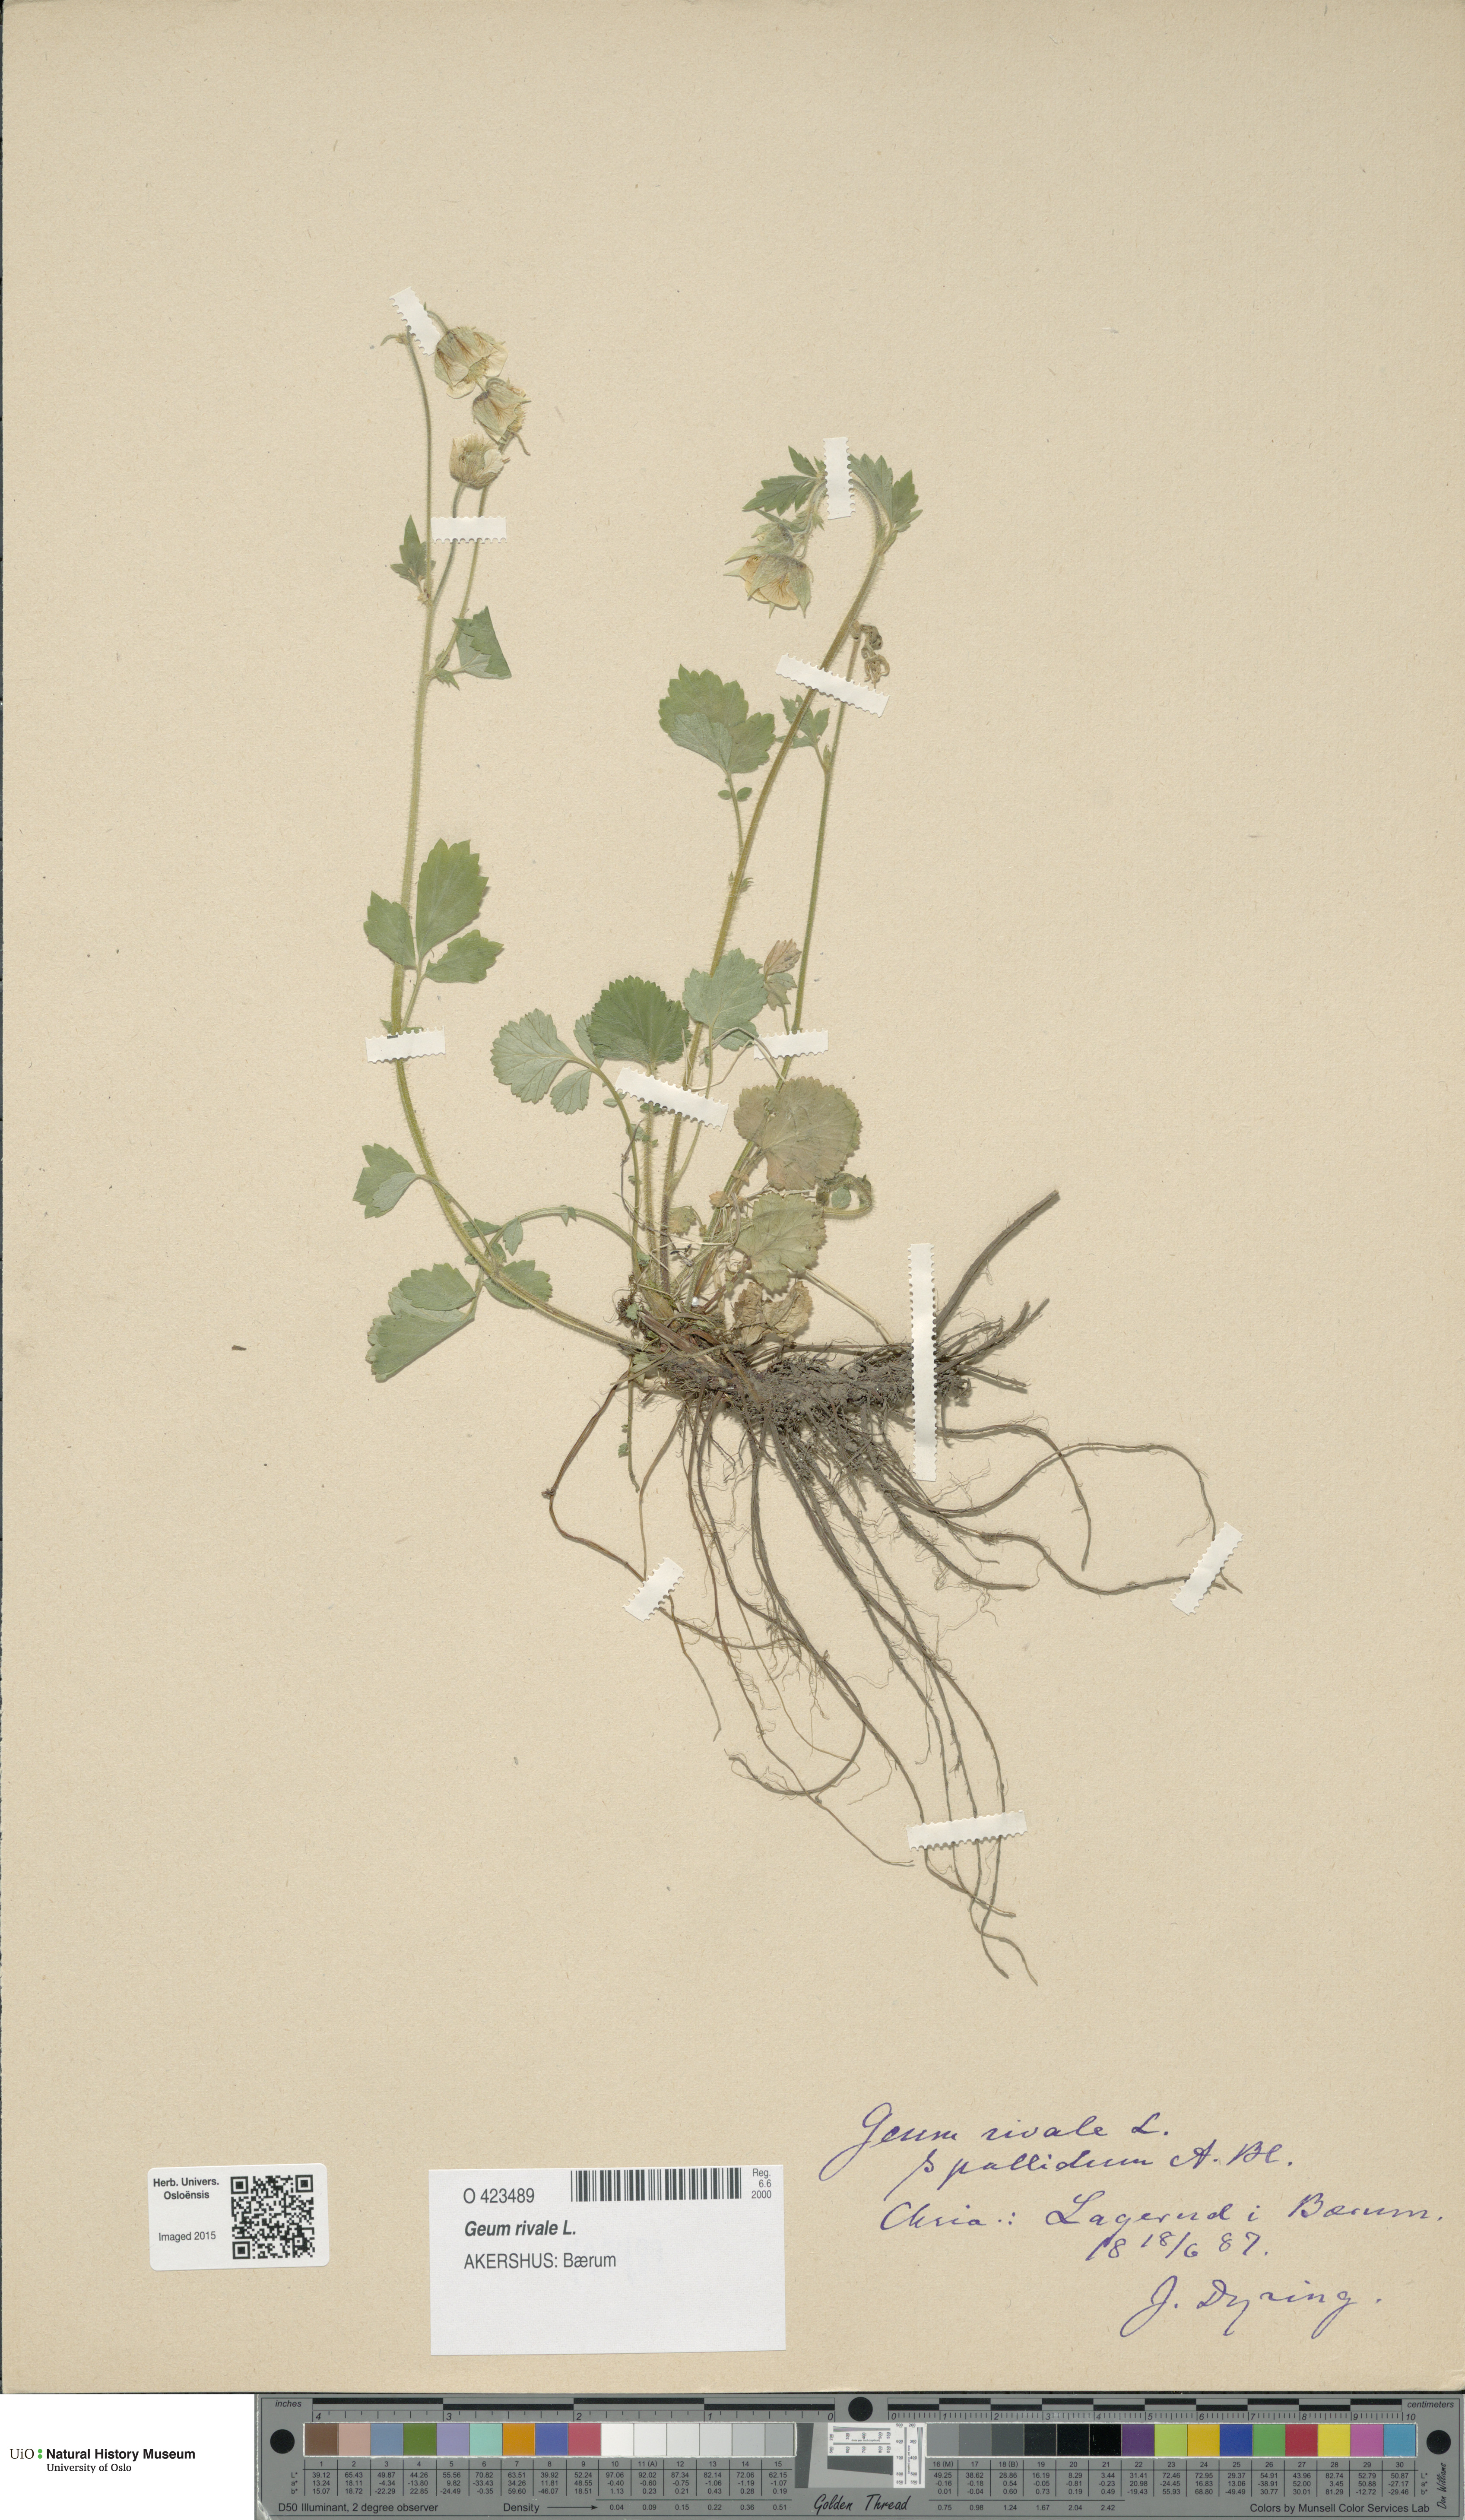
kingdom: Plantae
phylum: Tracheophyta
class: Magnoliopsida
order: Rosales
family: Rosaceae
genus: Geum
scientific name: Geum rivale
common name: Water avens
